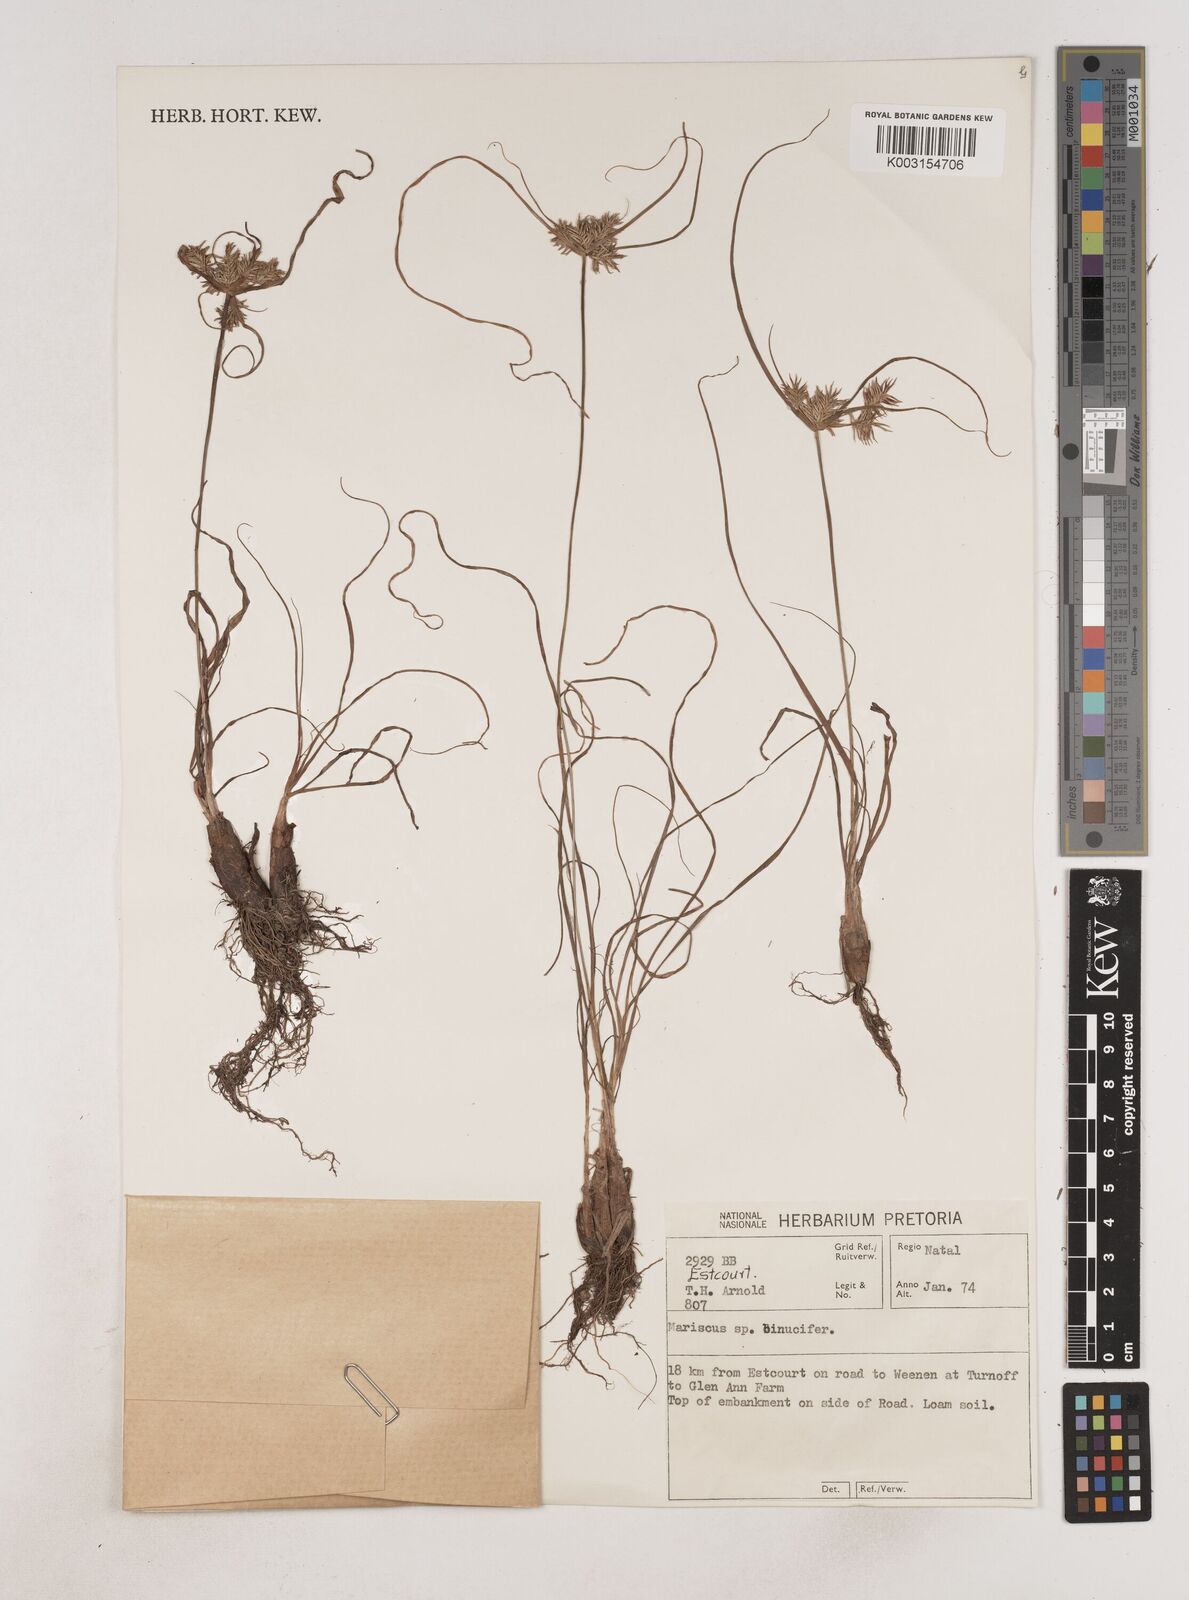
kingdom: Plantae
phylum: Tracheophyta
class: Liliopsida
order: Poales
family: Cyperaceae
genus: Cyperus
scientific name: Cyperus
